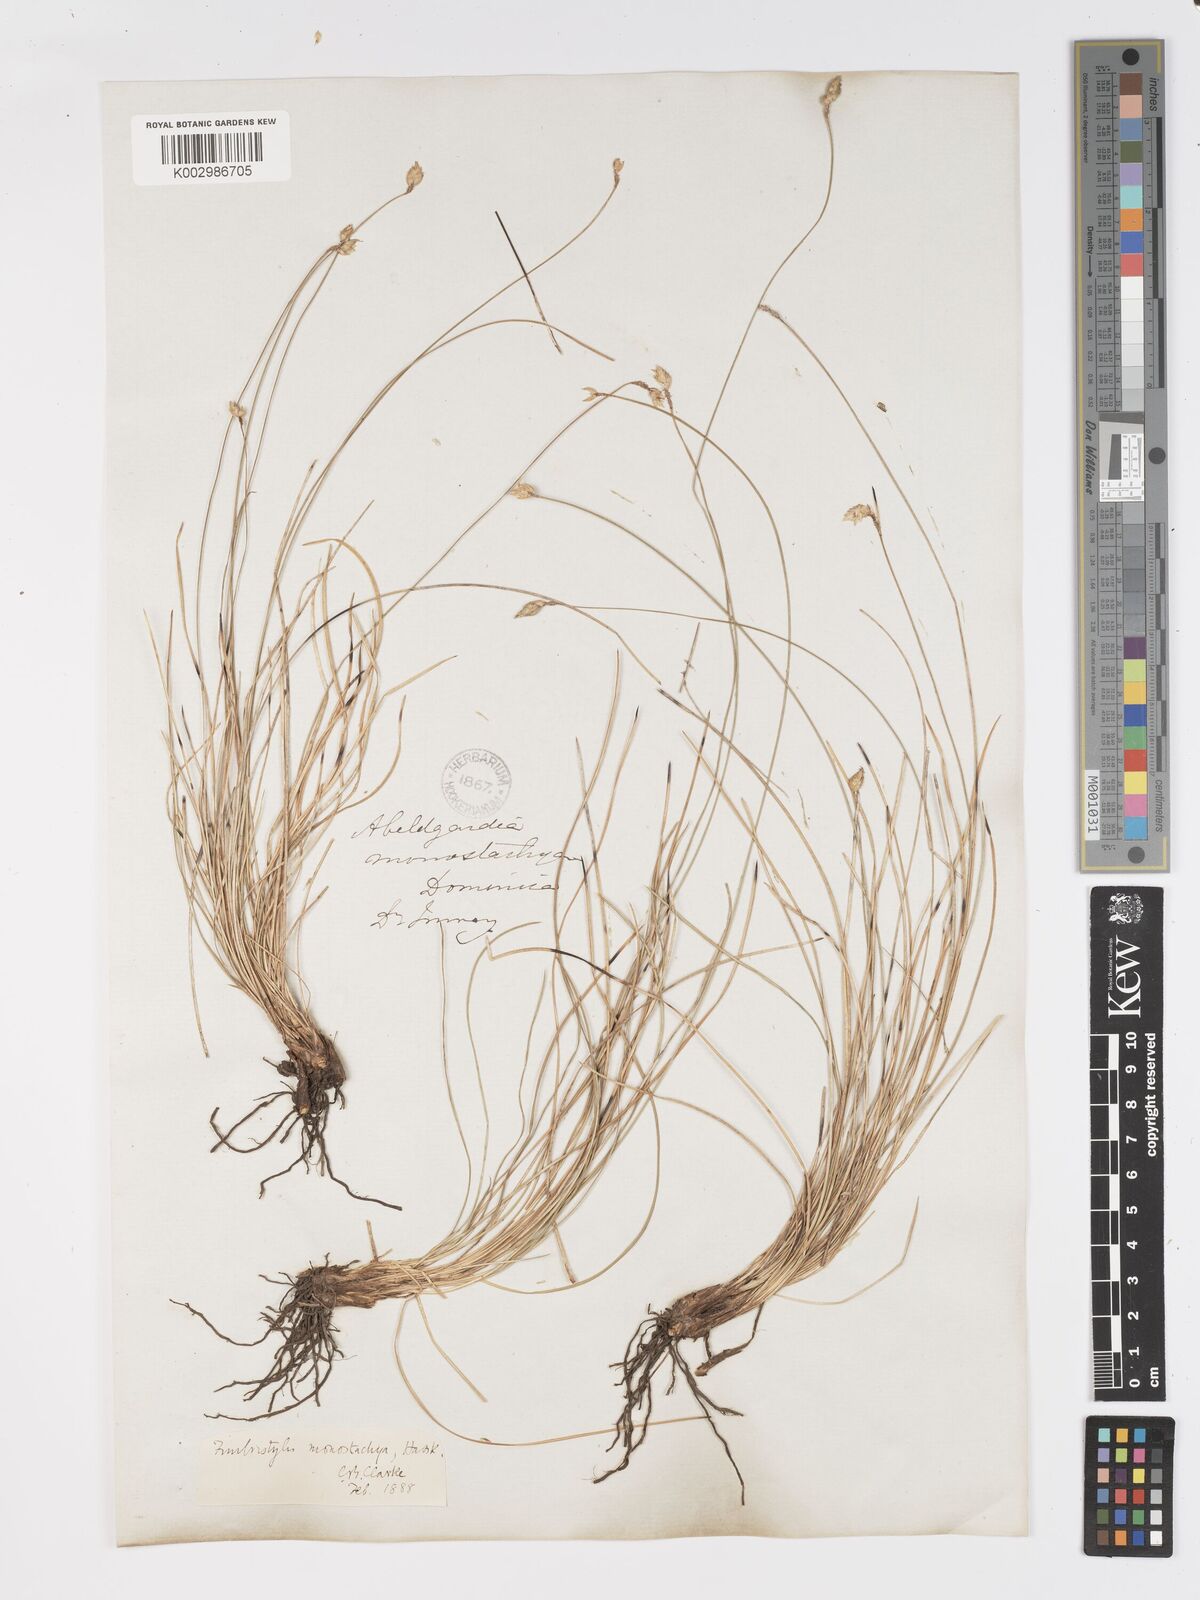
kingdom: Plantae
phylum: Tracheophyta
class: Liliopsida
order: Poales
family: Cyperaceae
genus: Abildgaardia
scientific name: Abildgaardia ovata
